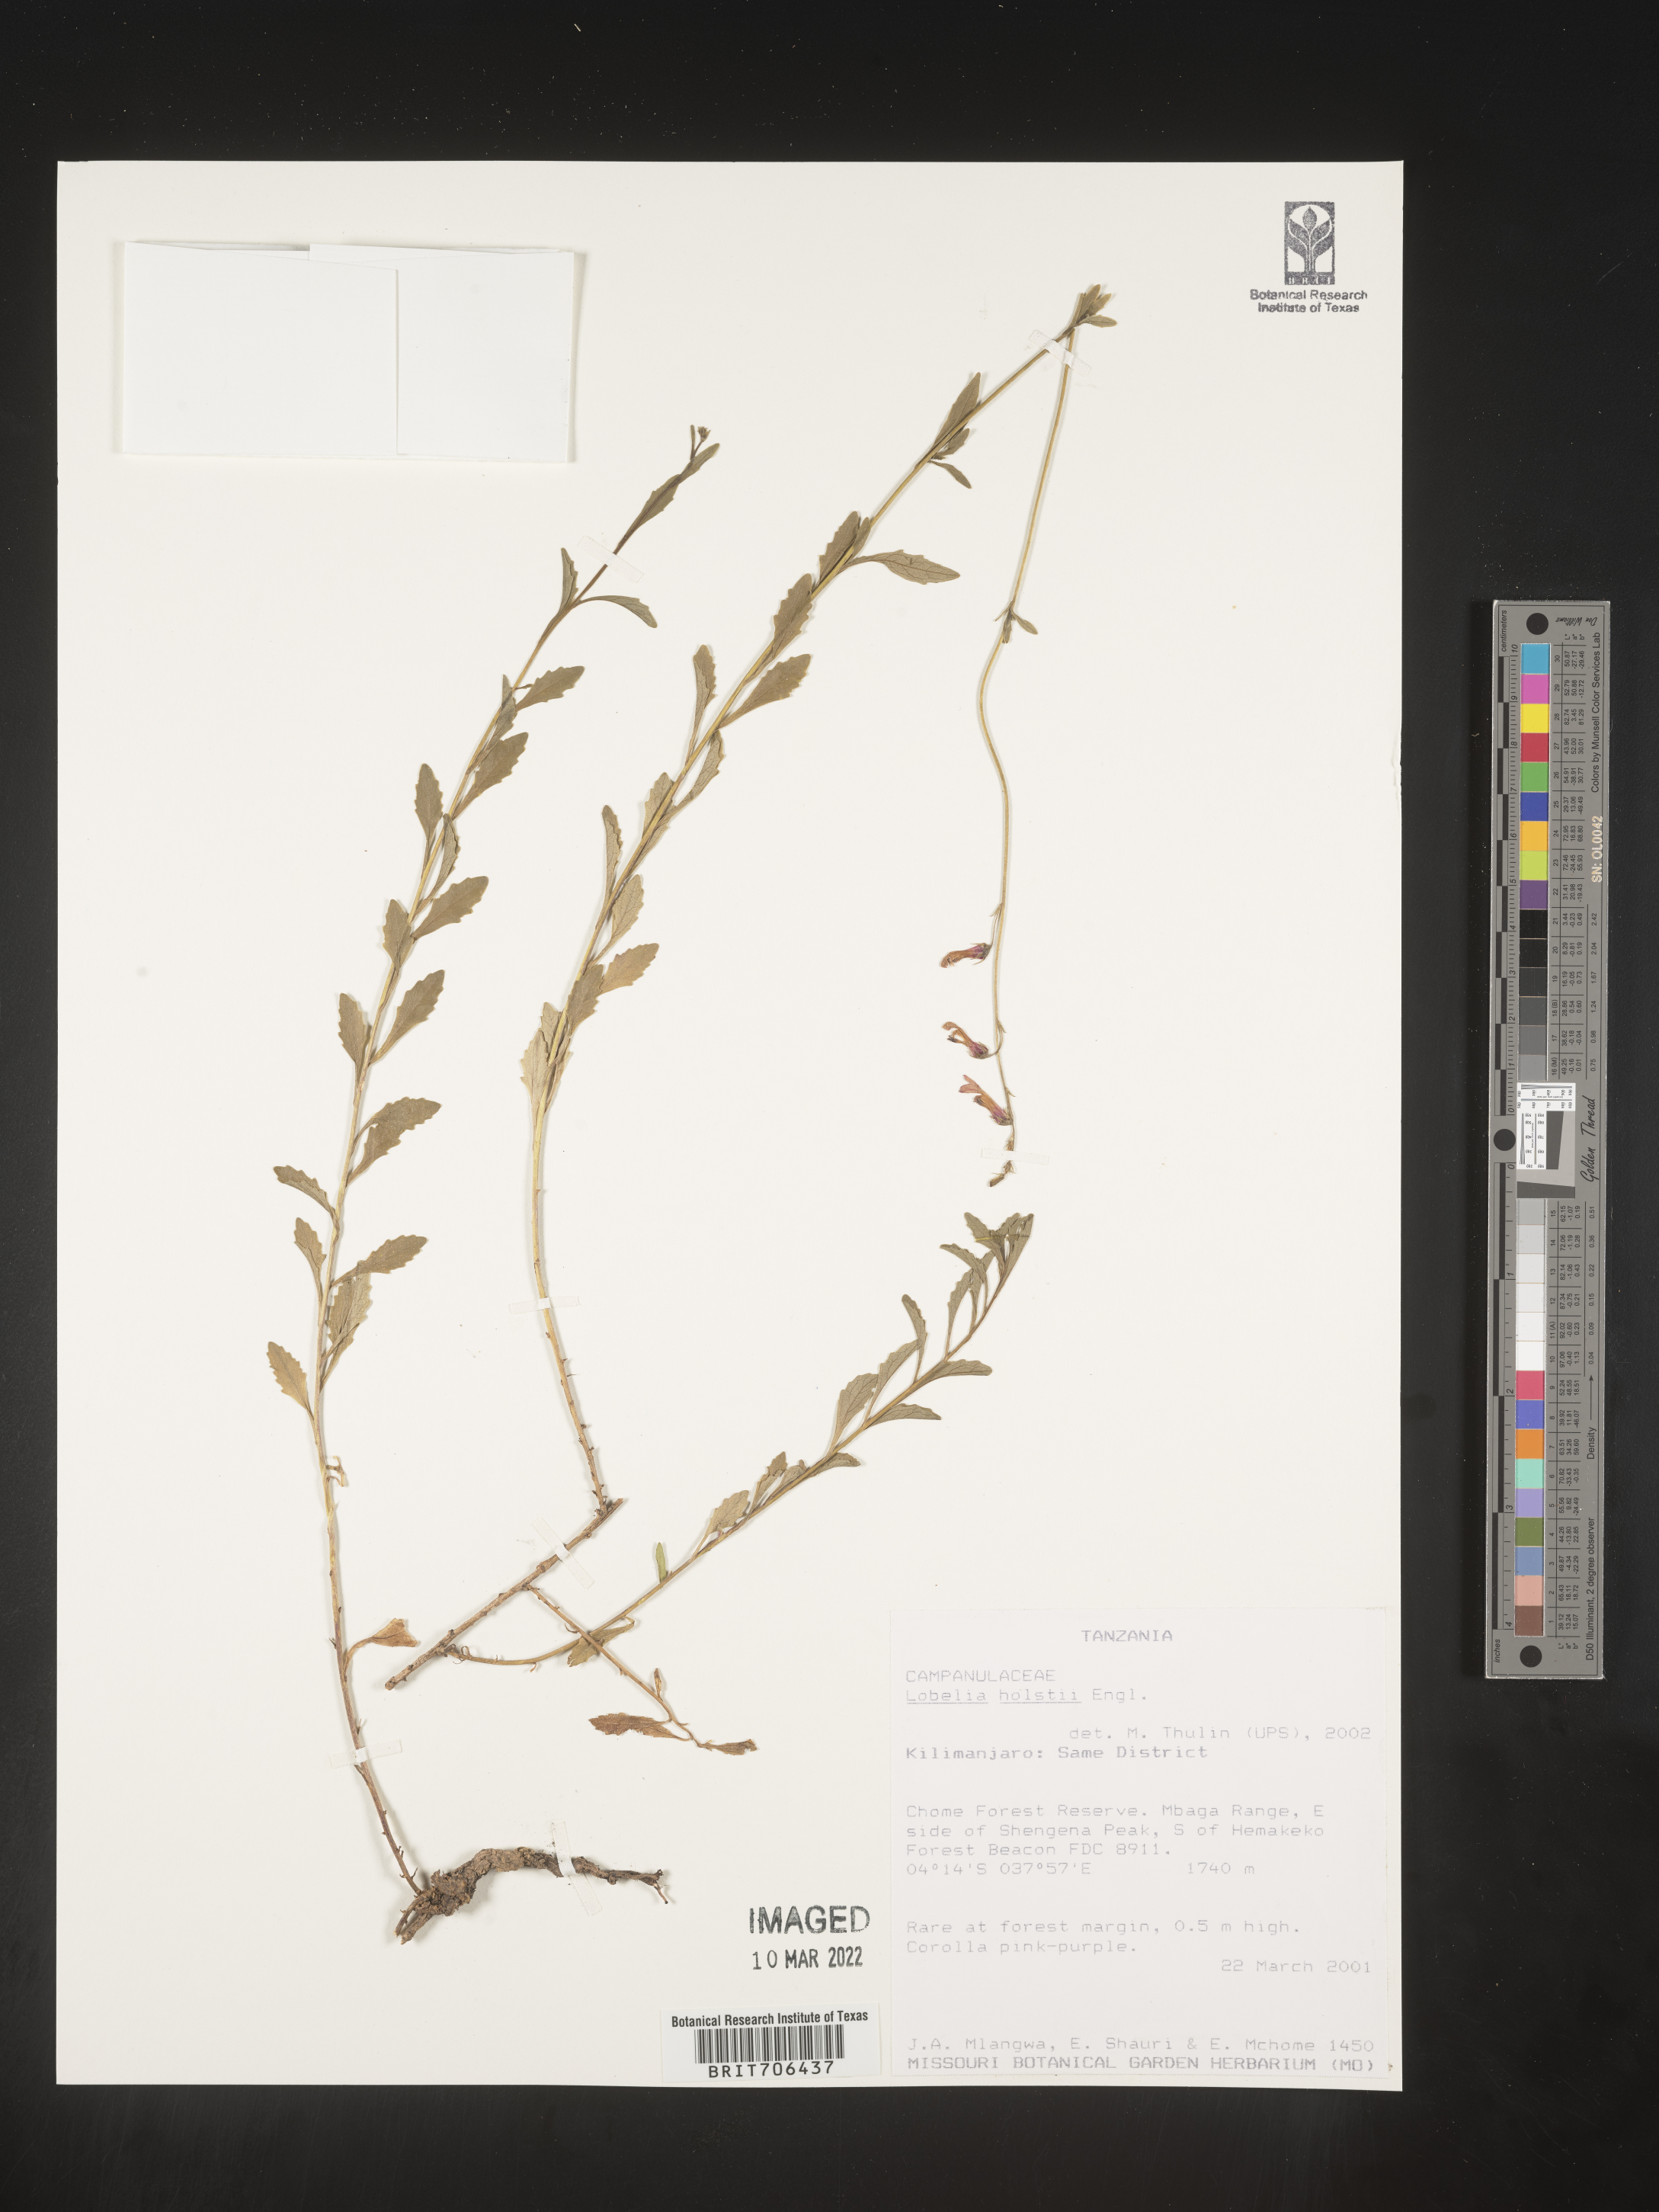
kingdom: Plantae
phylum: Tracheophyta
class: Magnoliopsida
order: Asterales
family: Campanulaceae
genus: Lobelia
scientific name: Lobelia
